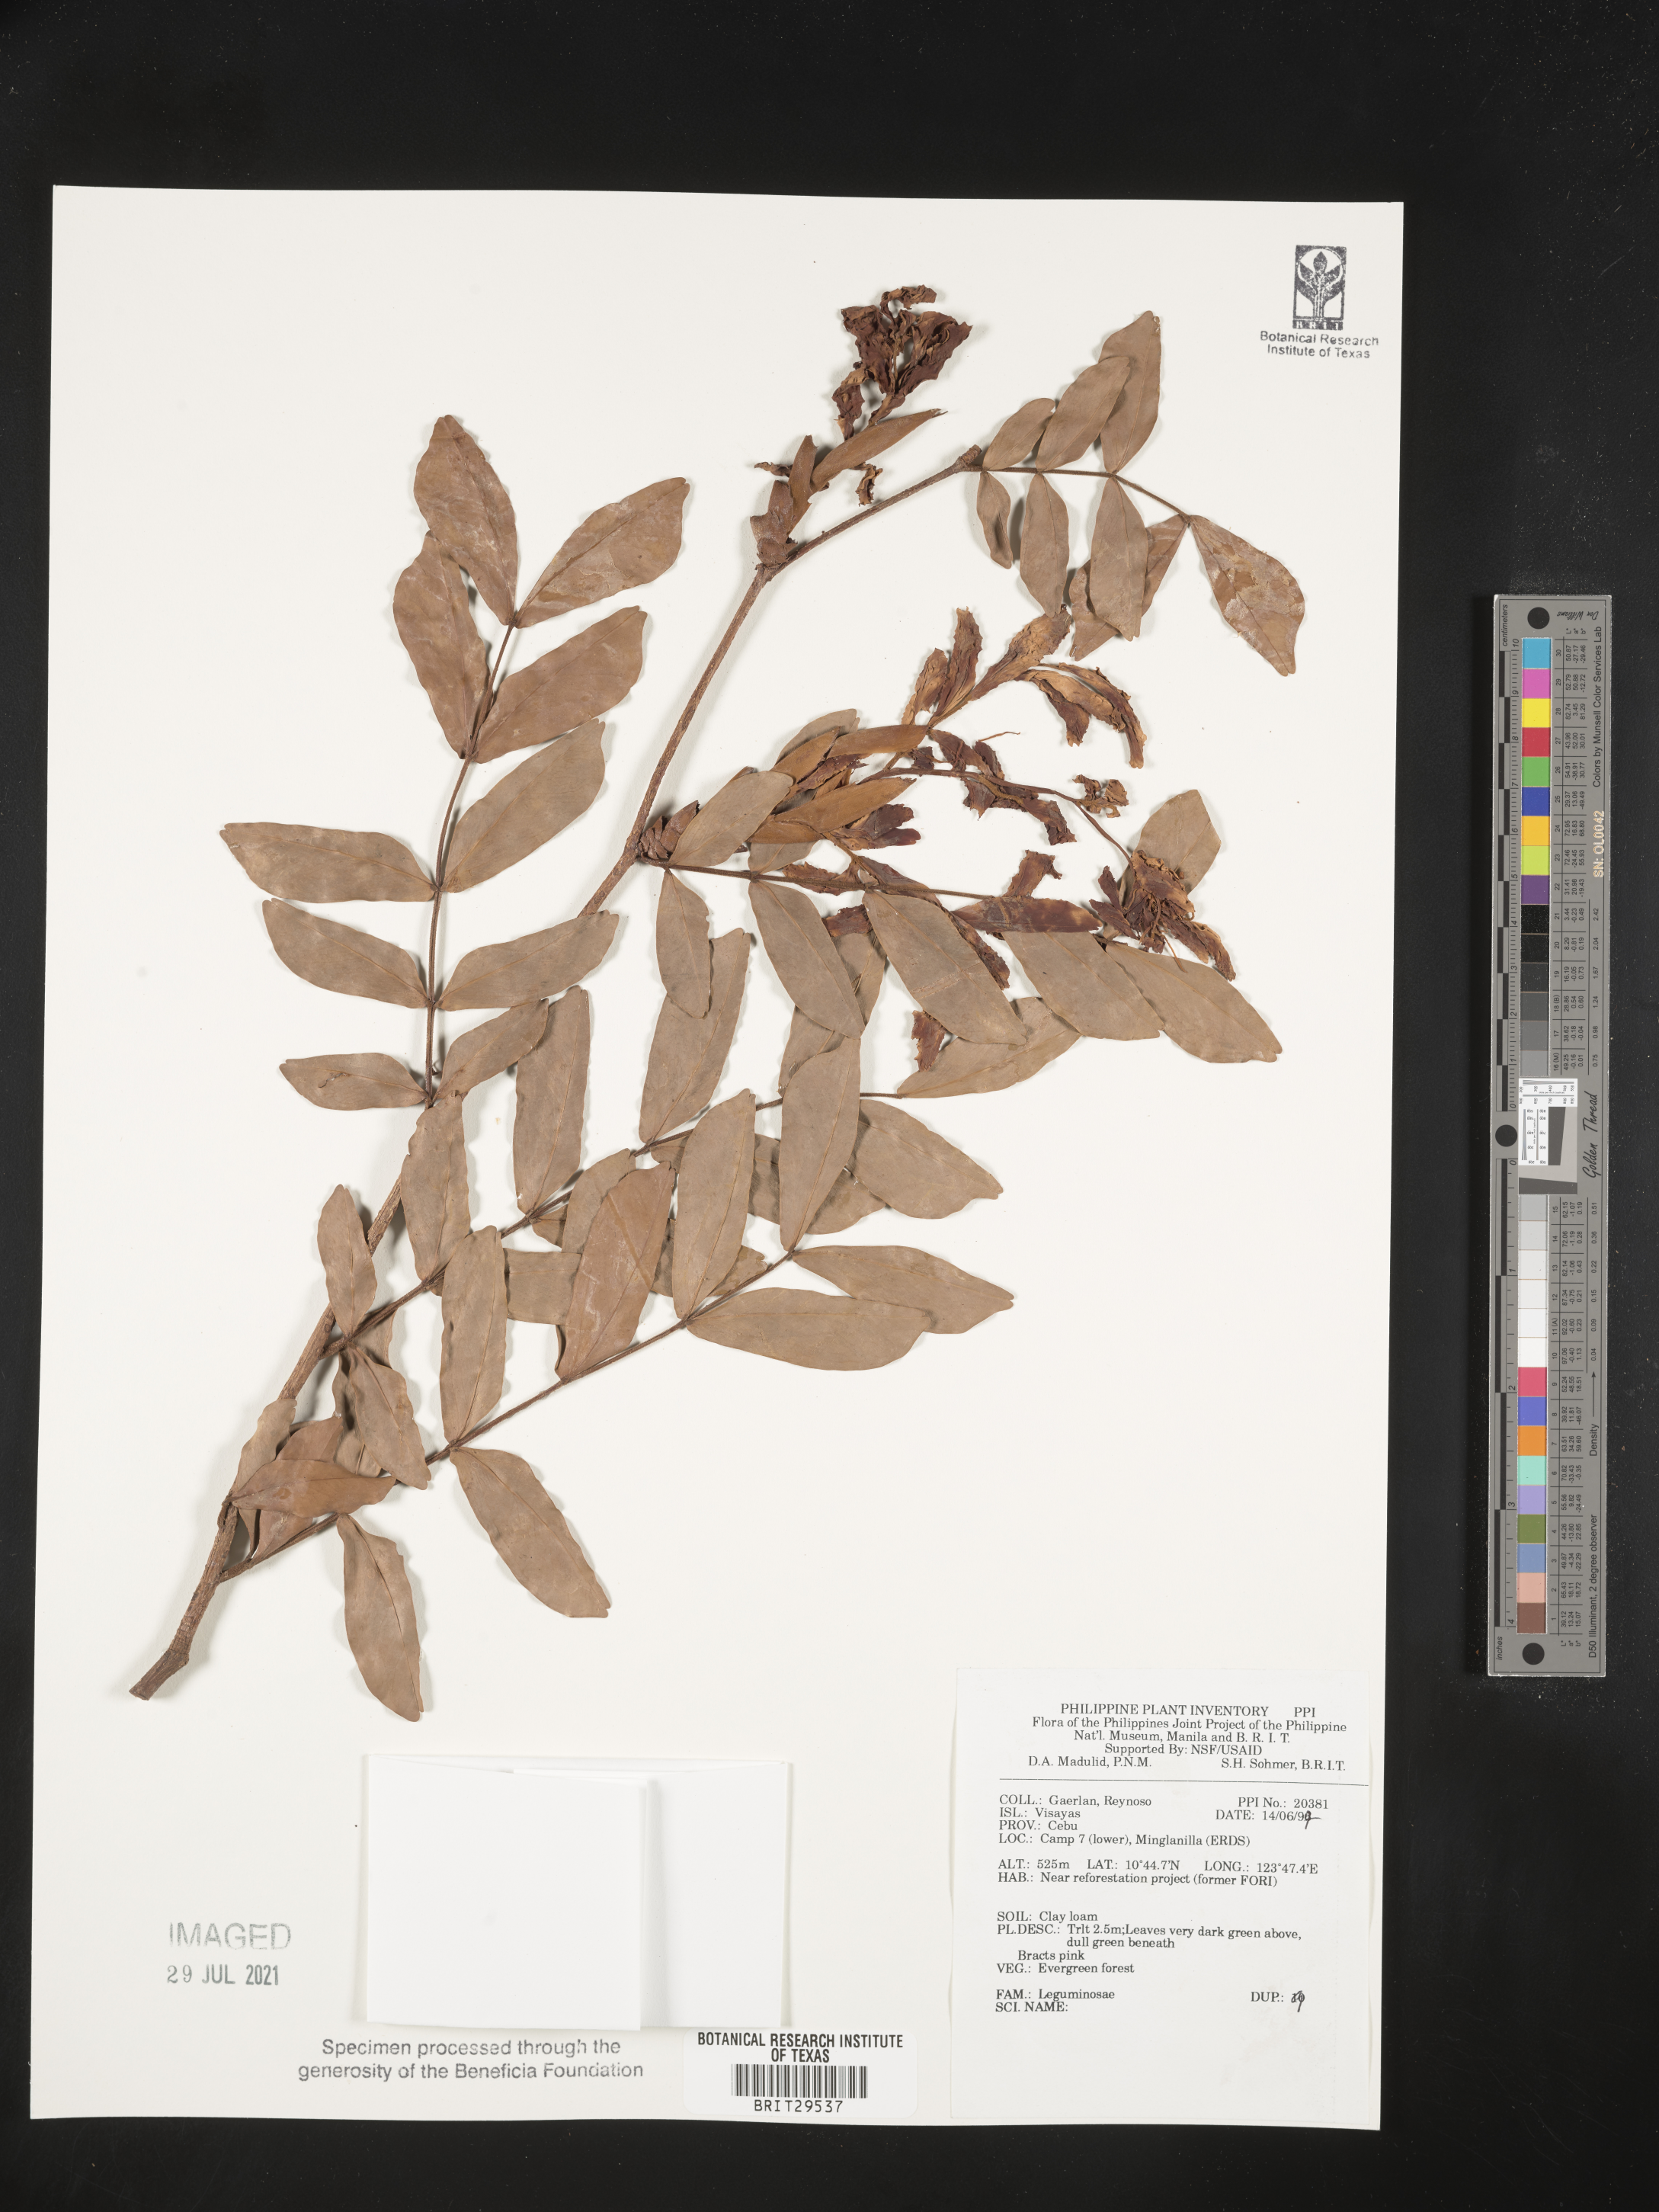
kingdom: Plantae
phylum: Tracheophyta
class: Magnoliopsida
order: Fabales
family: Fabaceae
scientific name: Fabaceae
